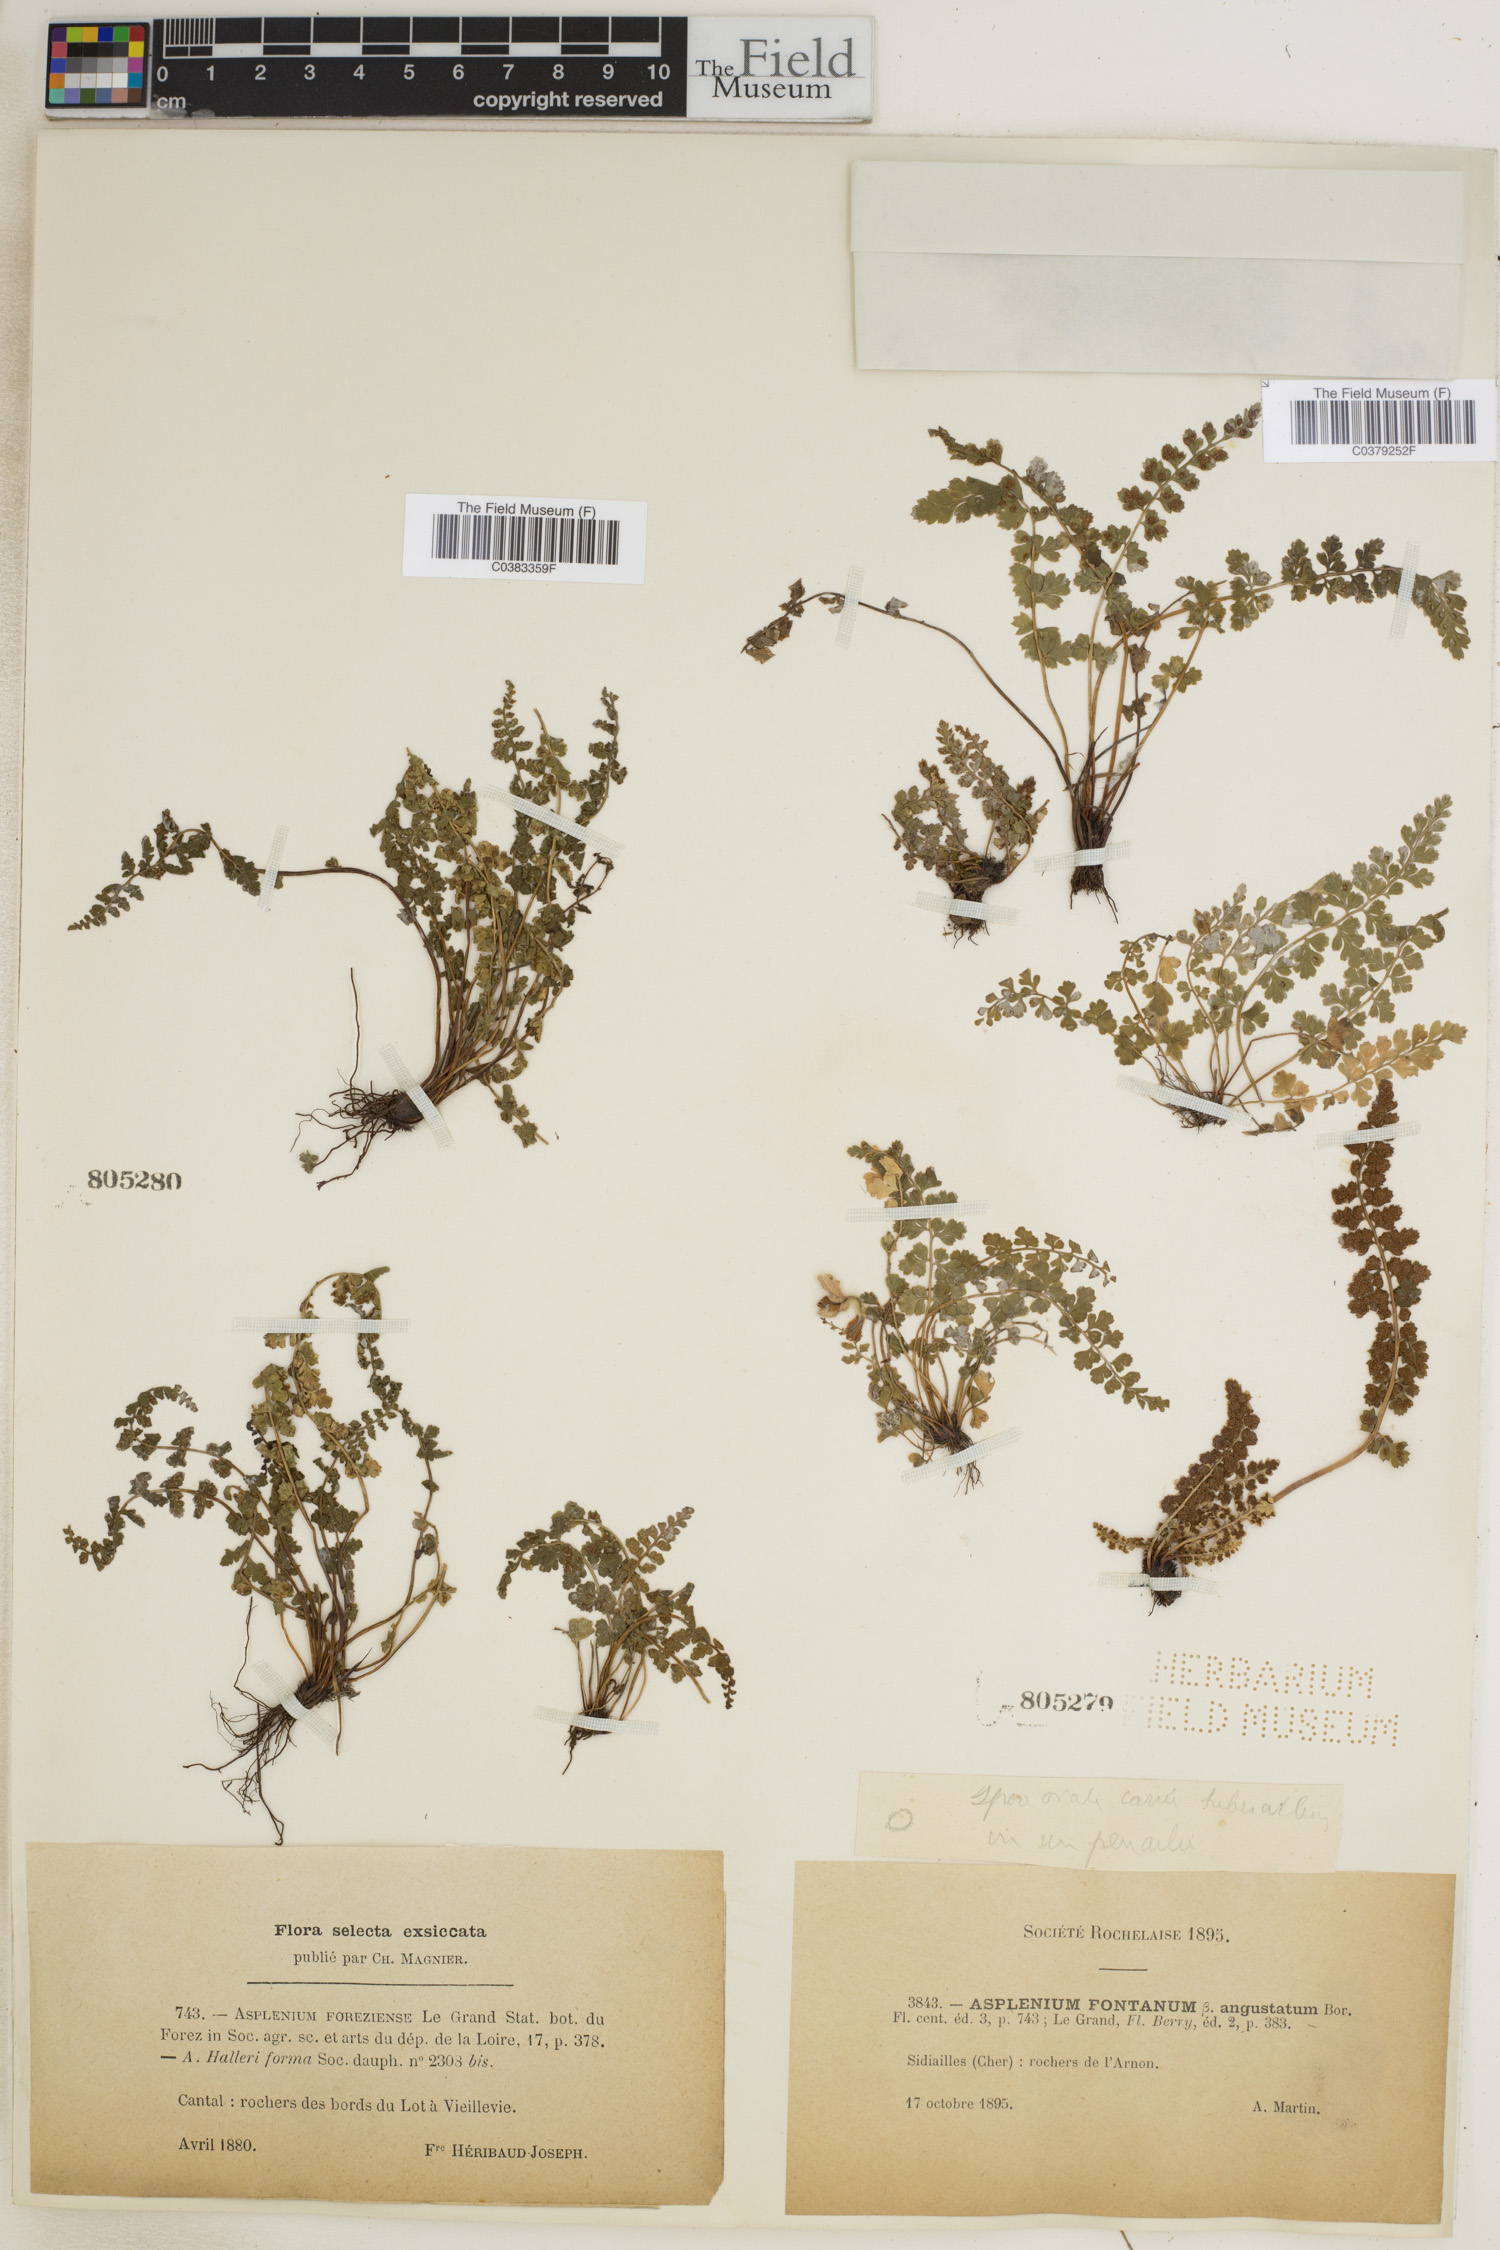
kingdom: Plantae
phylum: Tracheophyta
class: Polypodiopsida
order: Polypodiales
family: Aspleniaceae
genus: Asplenium
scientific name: Asplenium foresiense
